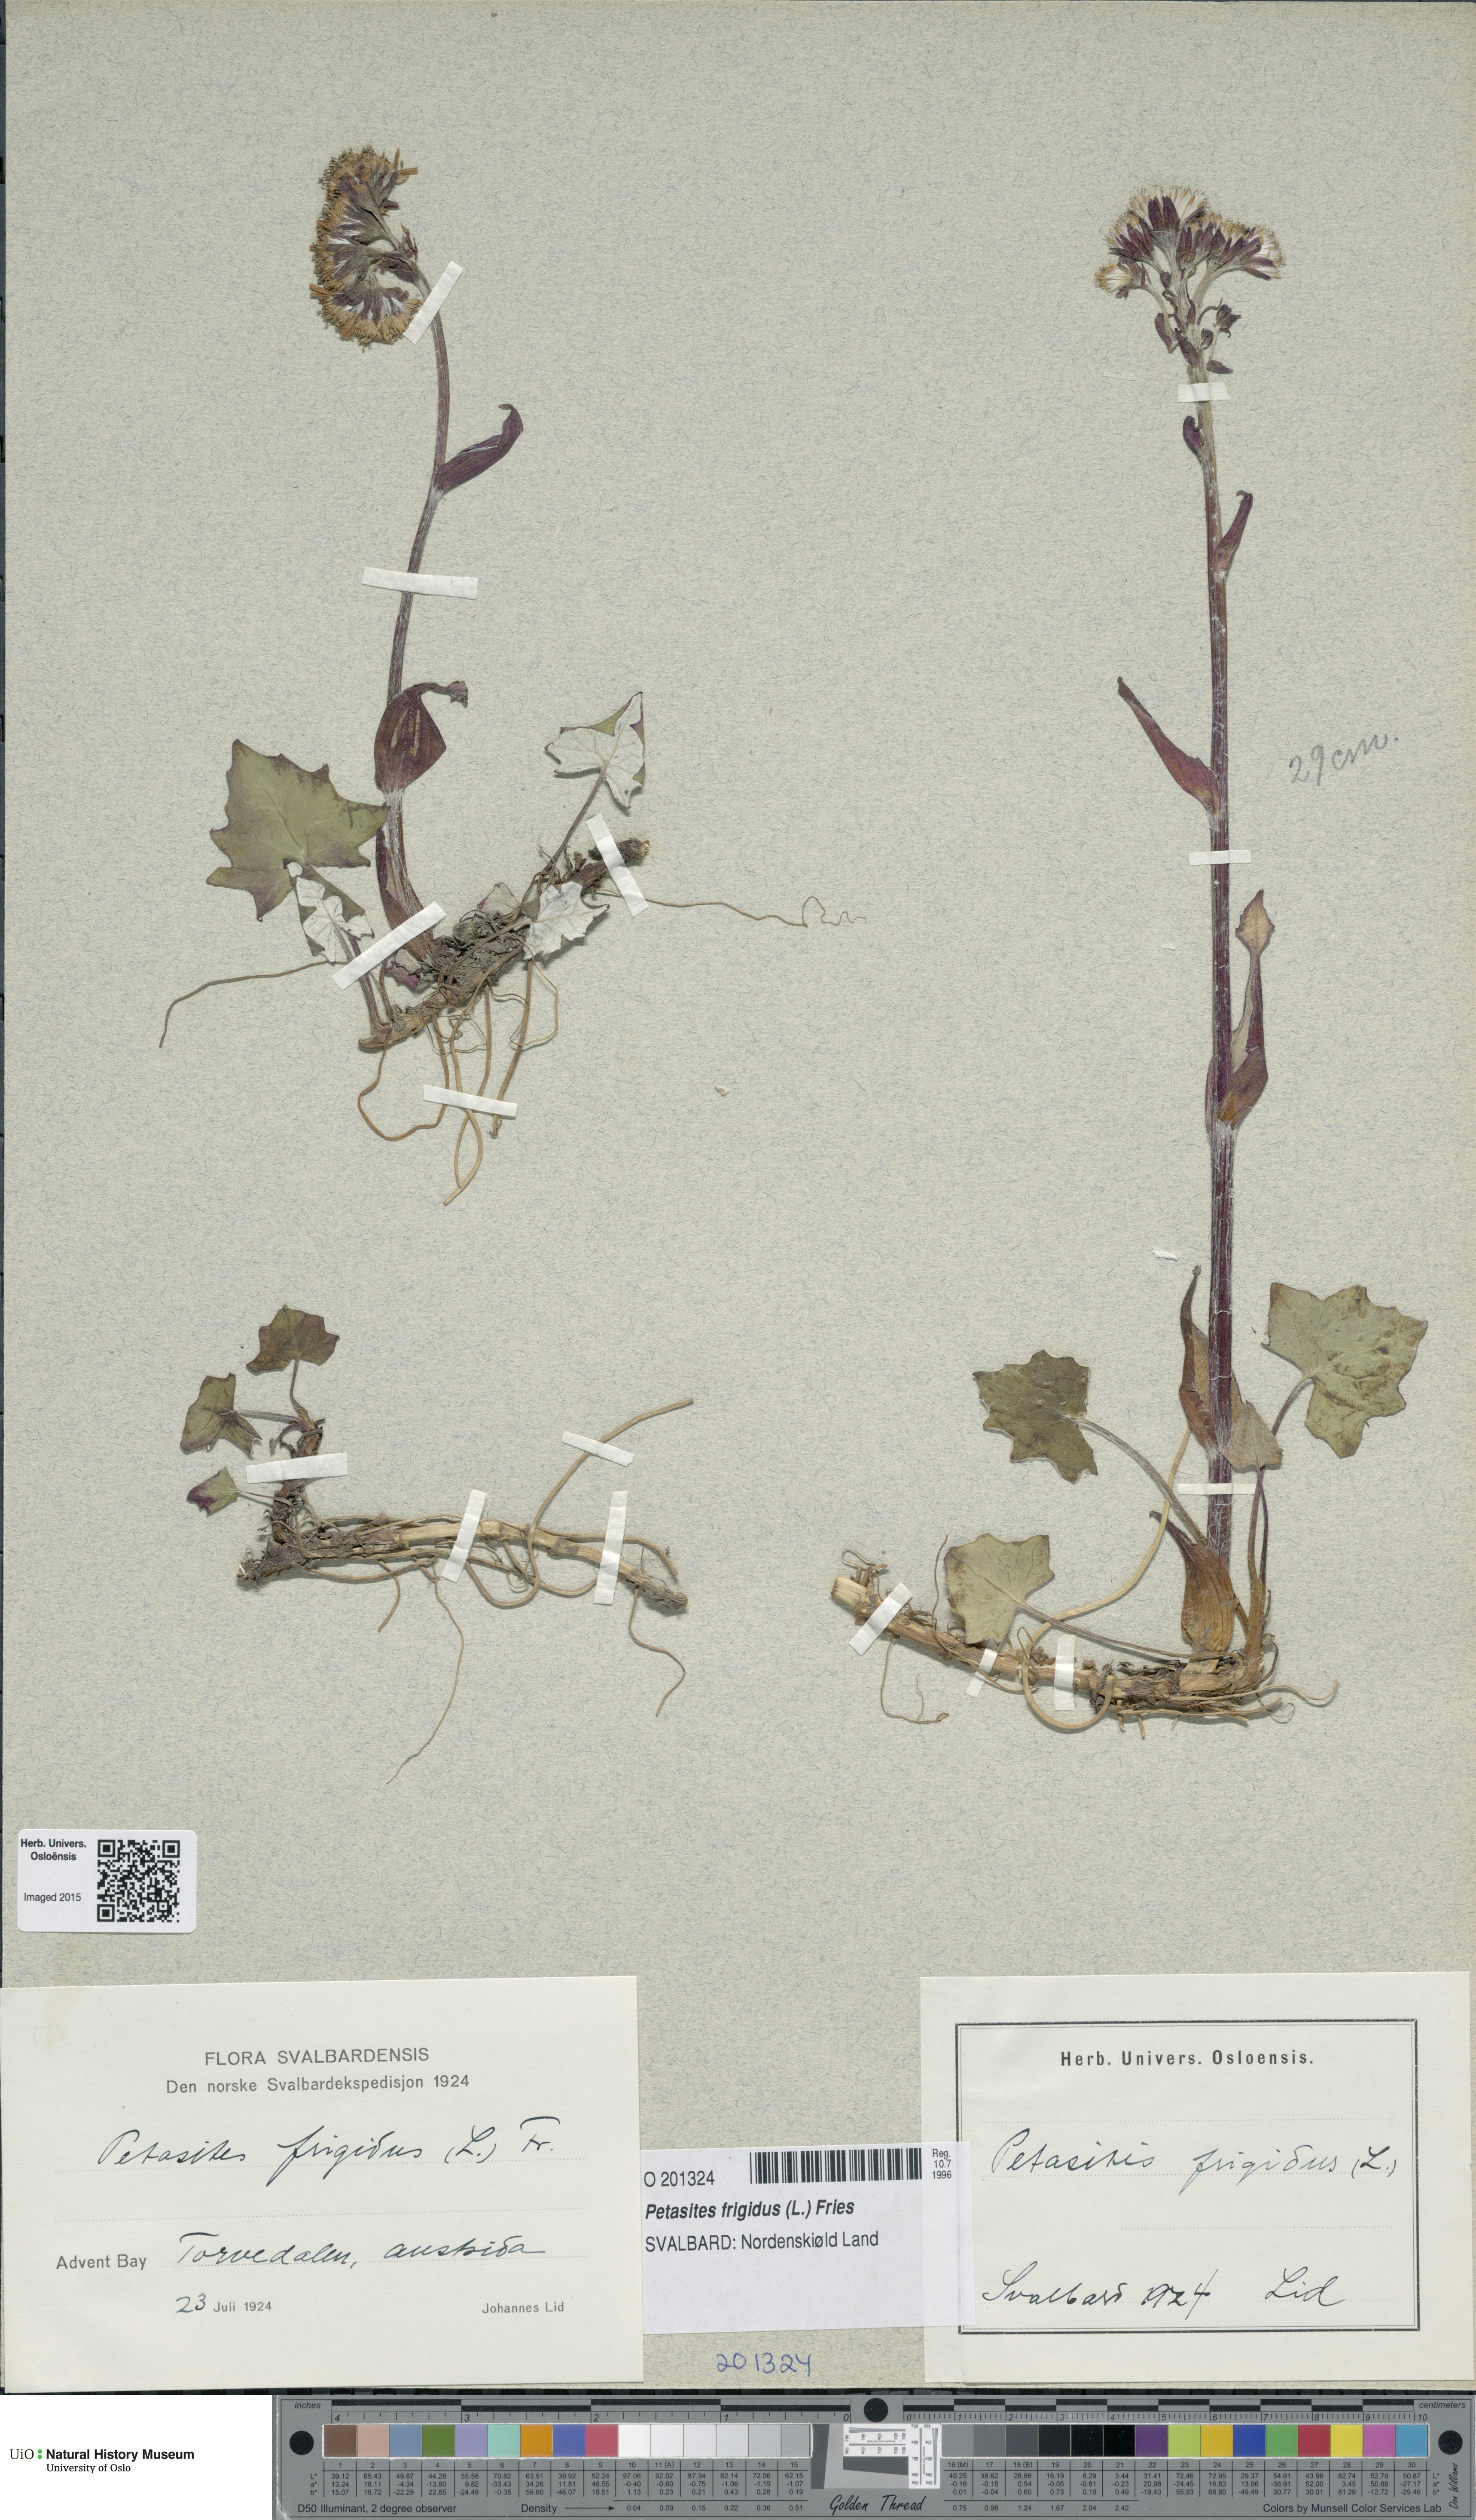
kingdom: Plantae
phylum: Tracheophyta
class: Magnoliopsida
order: Asterales
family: Asteraceae
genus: Petasites
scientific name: Petasites frigidus
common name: Arctic butterbur
